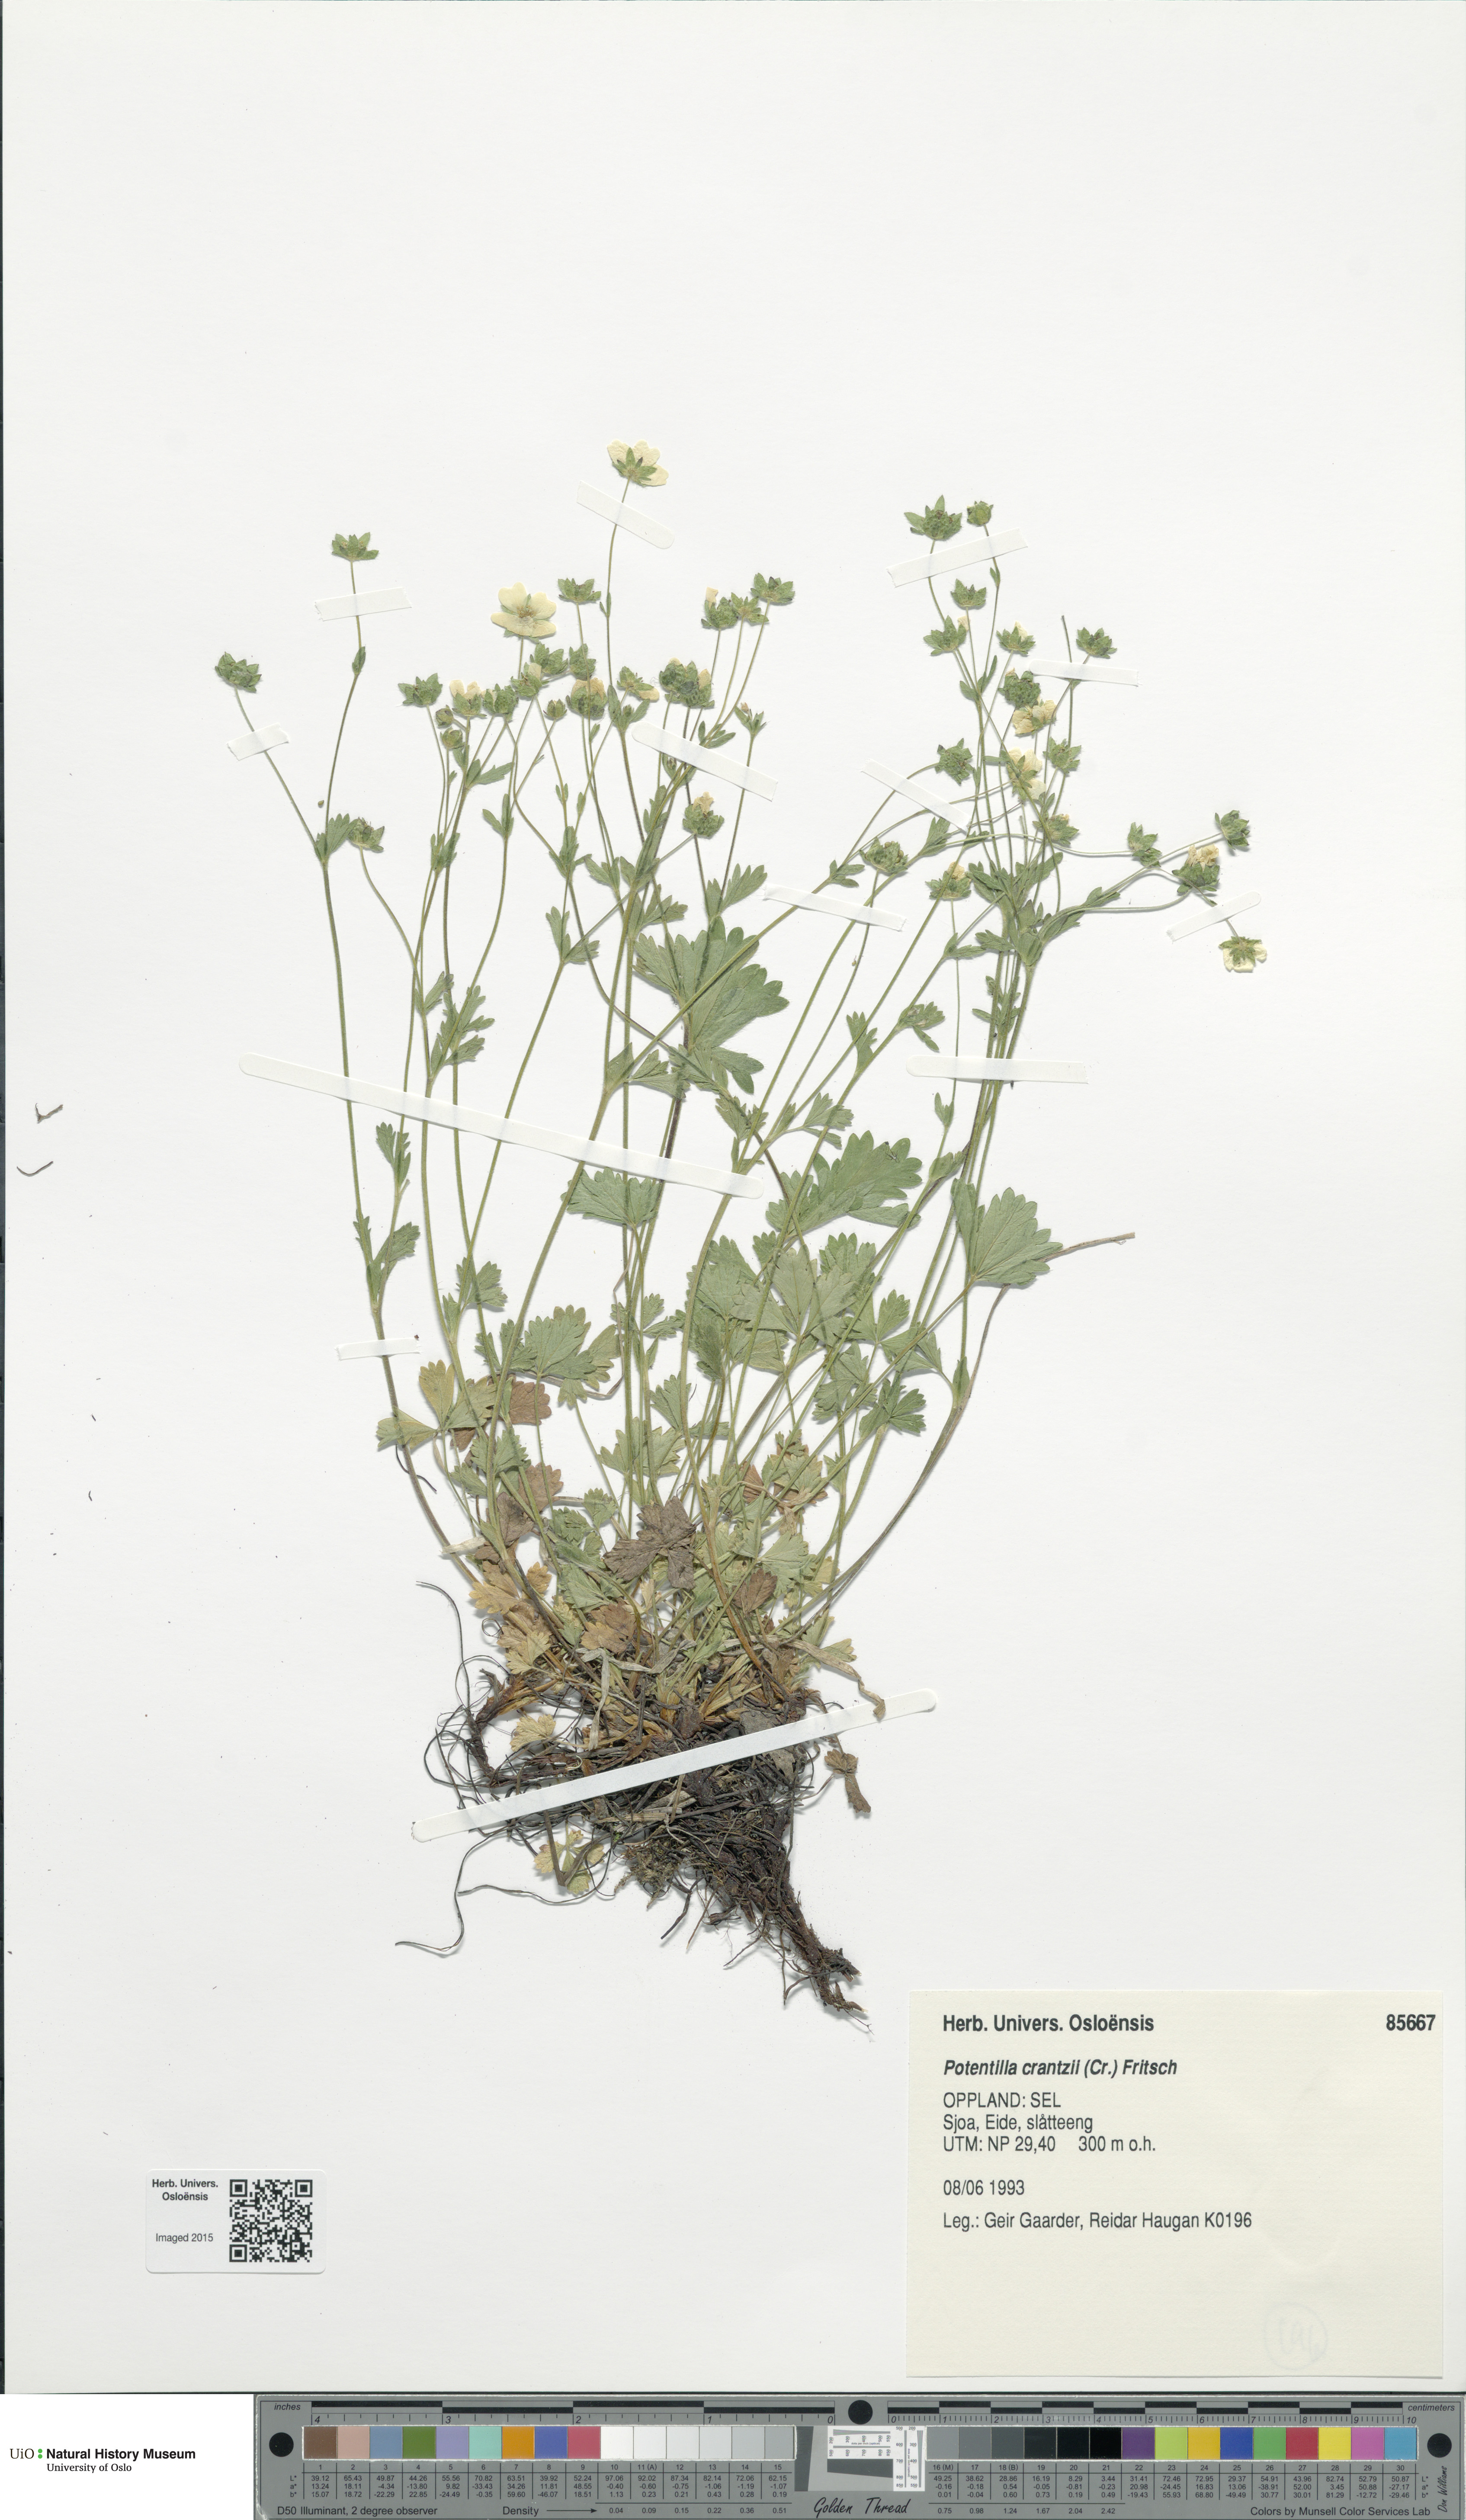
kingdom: Plantae
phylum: Tracheophyta
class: Magnoliopsida
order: Rosales
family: Rosaceae
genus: Potentilla
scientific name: Potentilla crantzii
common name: Alpine cinquefoil
